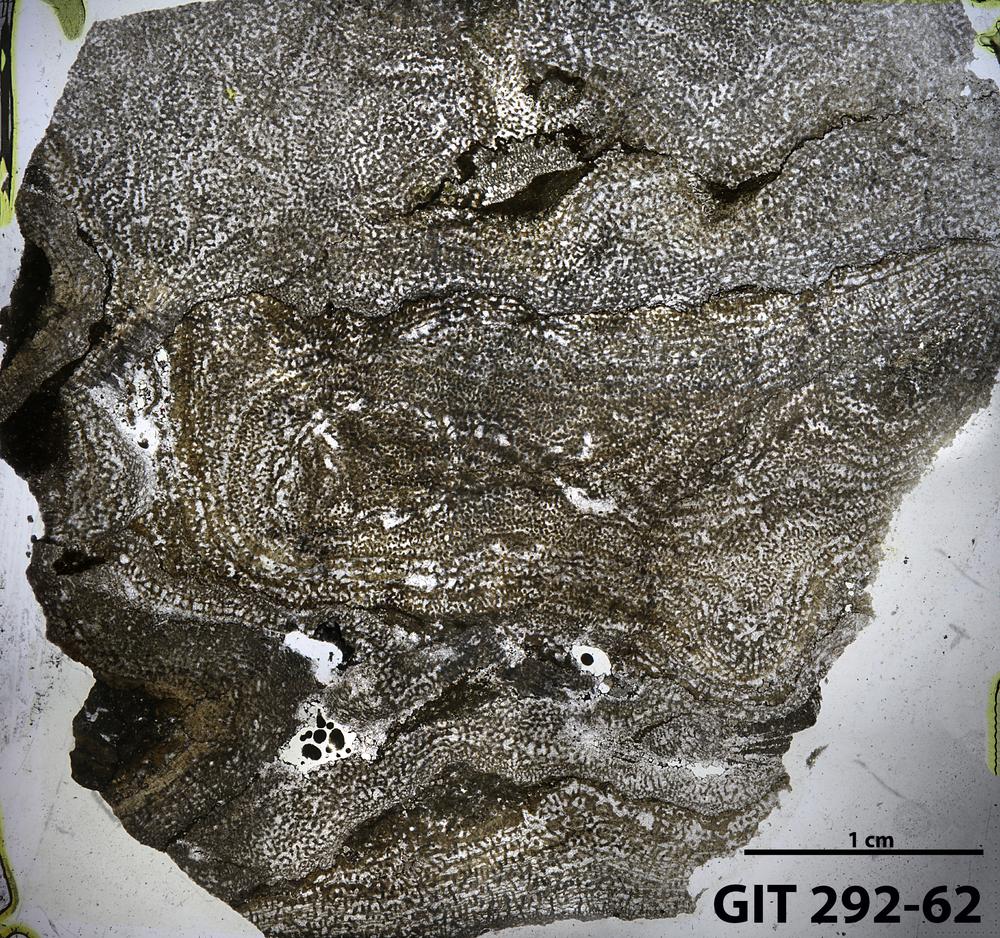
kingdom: Animalia
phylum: Porifera
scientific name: Porifera
